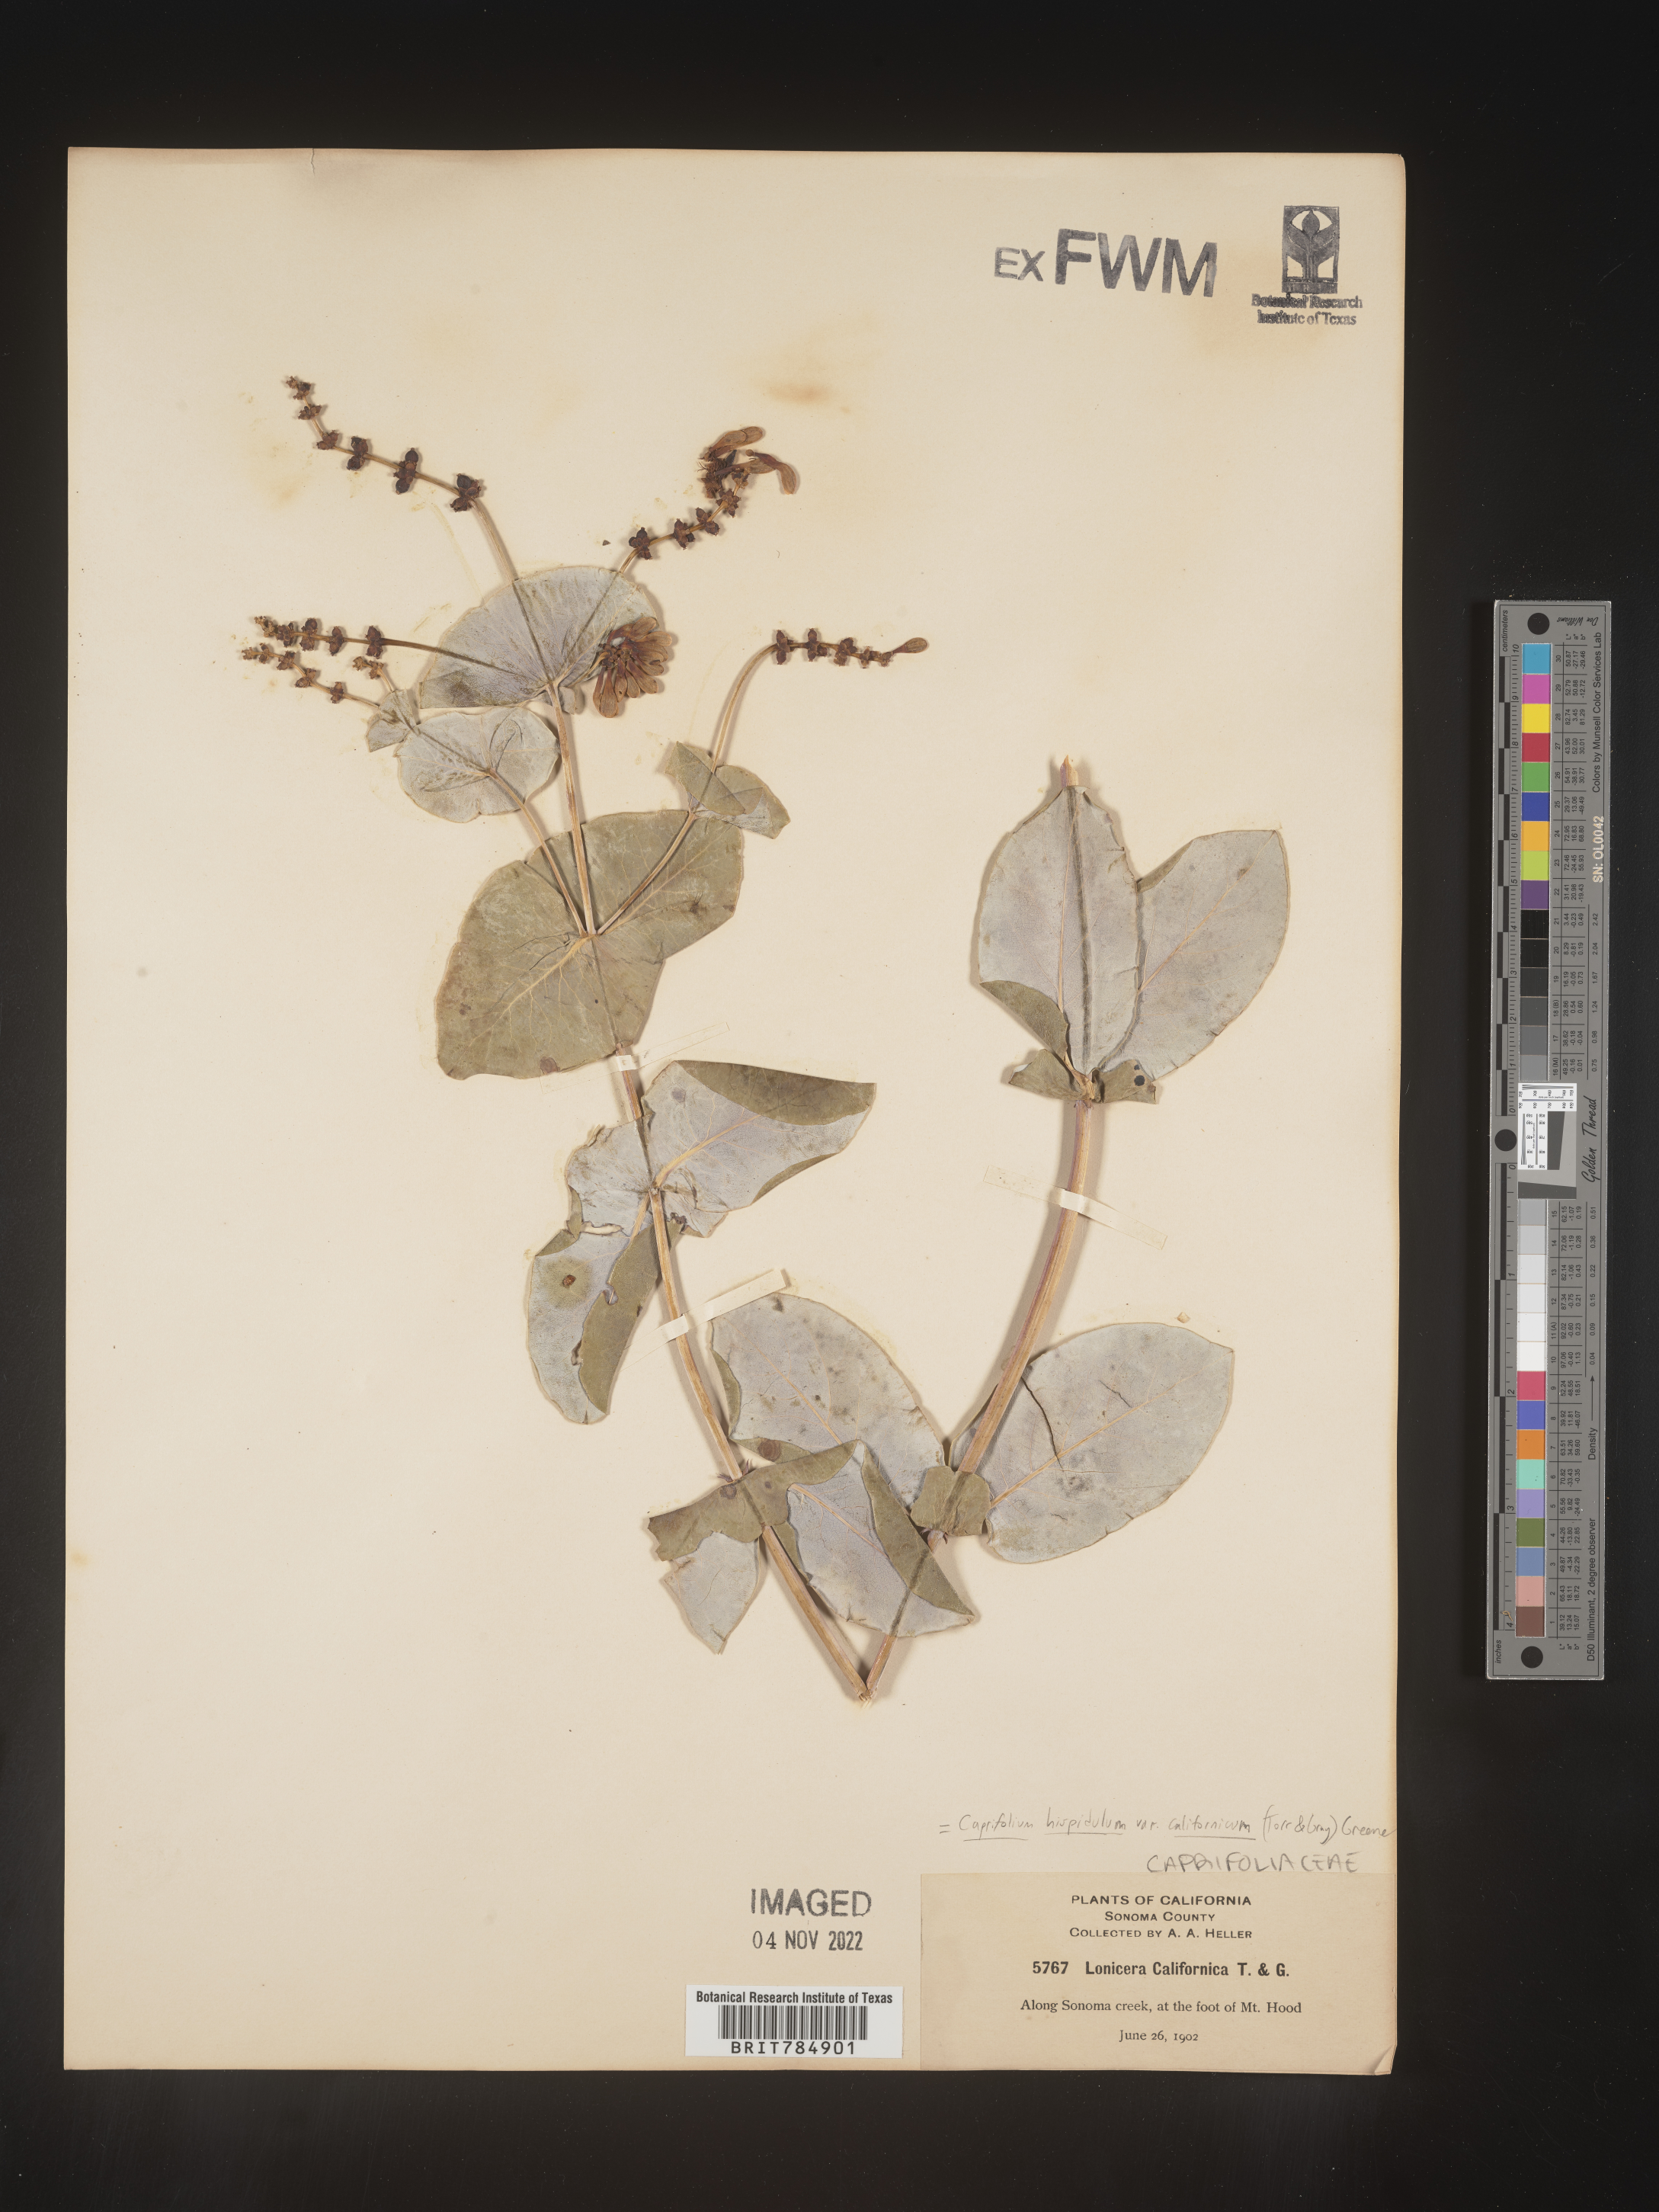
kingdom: Plantae
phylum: Tracheophyta
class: Magnoliopsida
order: Dipsacales
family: Caprifoliaceae
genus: Lonicera
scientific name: Lonicera hispidula
